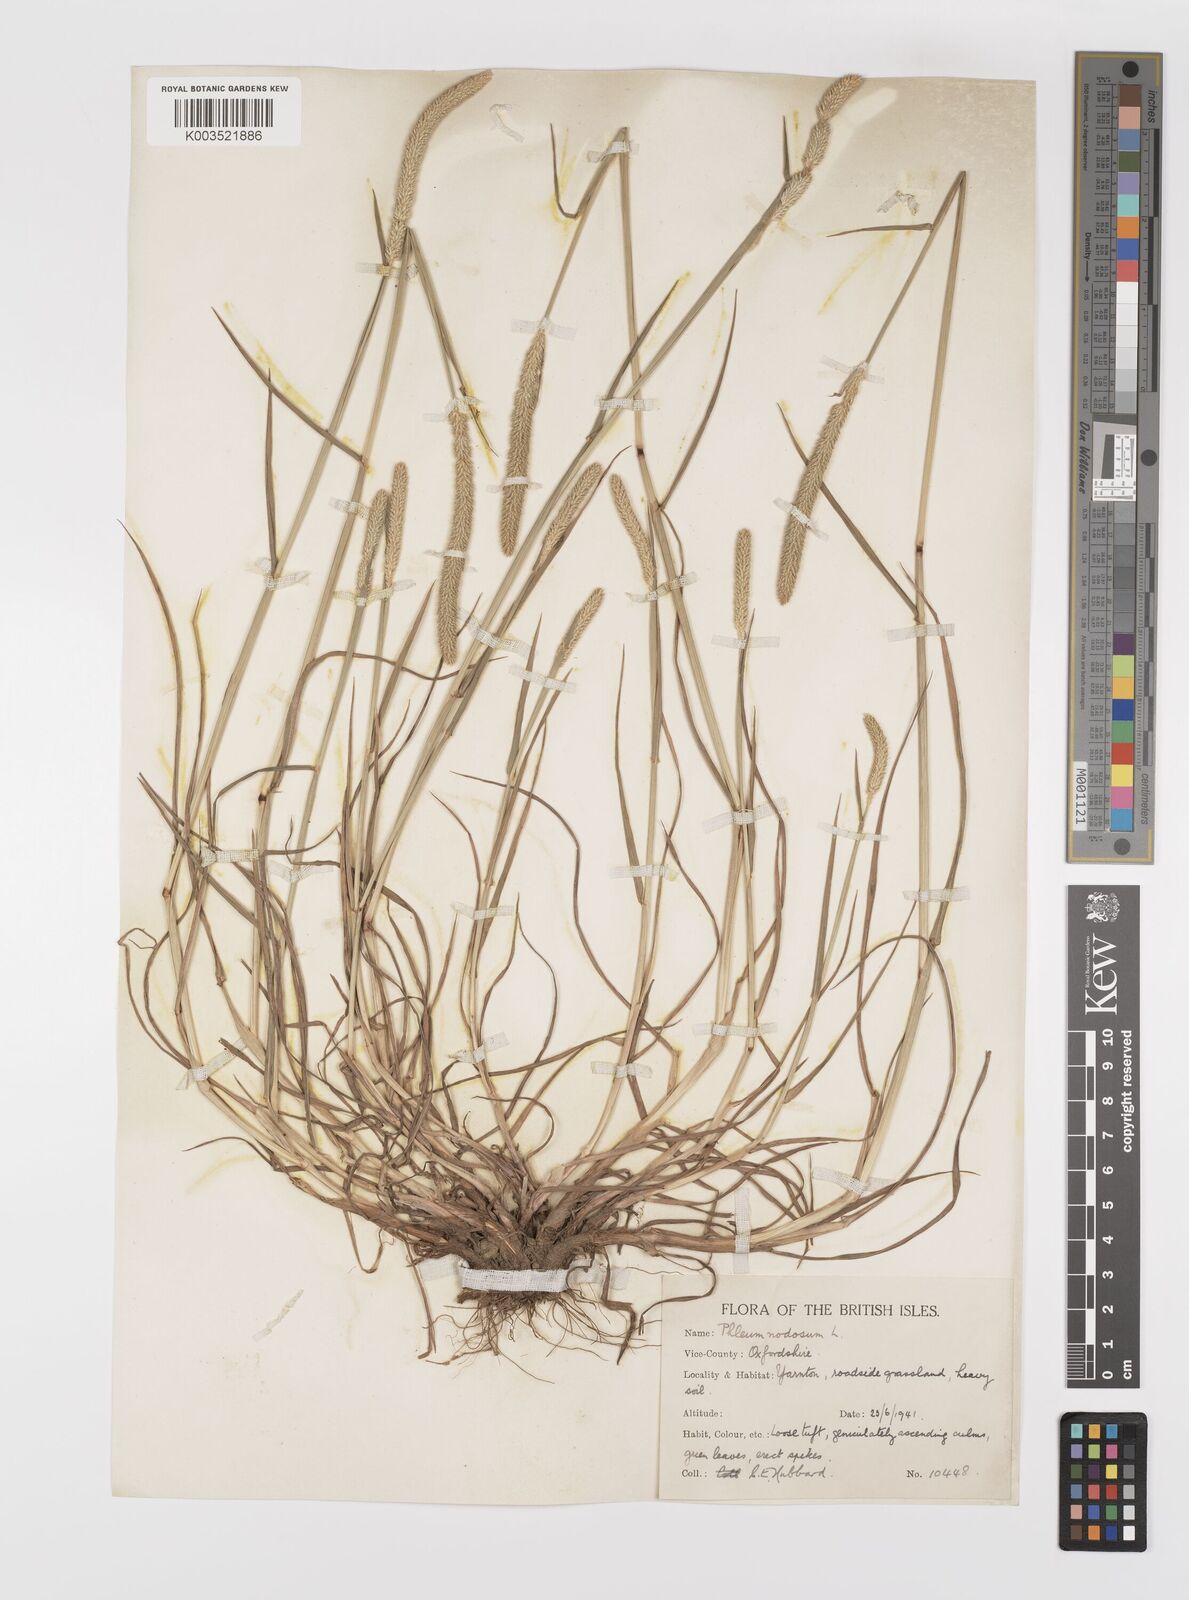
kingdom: Plantae
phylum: Tracheophyta
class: Liliopsida
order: Poales
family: Poaceae
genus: Phleum
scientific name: Phleum bertolonii
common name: Smaller cat's-tail
